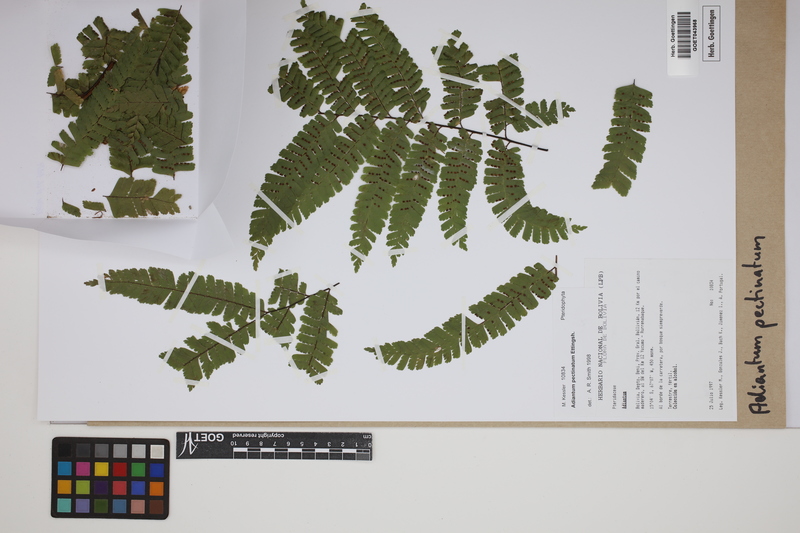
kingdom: Plantae
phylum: Tracheophyta
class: Polypodiopsida
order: Polypodiales
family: Pteridaceae
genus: Adiantum
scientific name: Adiantum pectinatum
